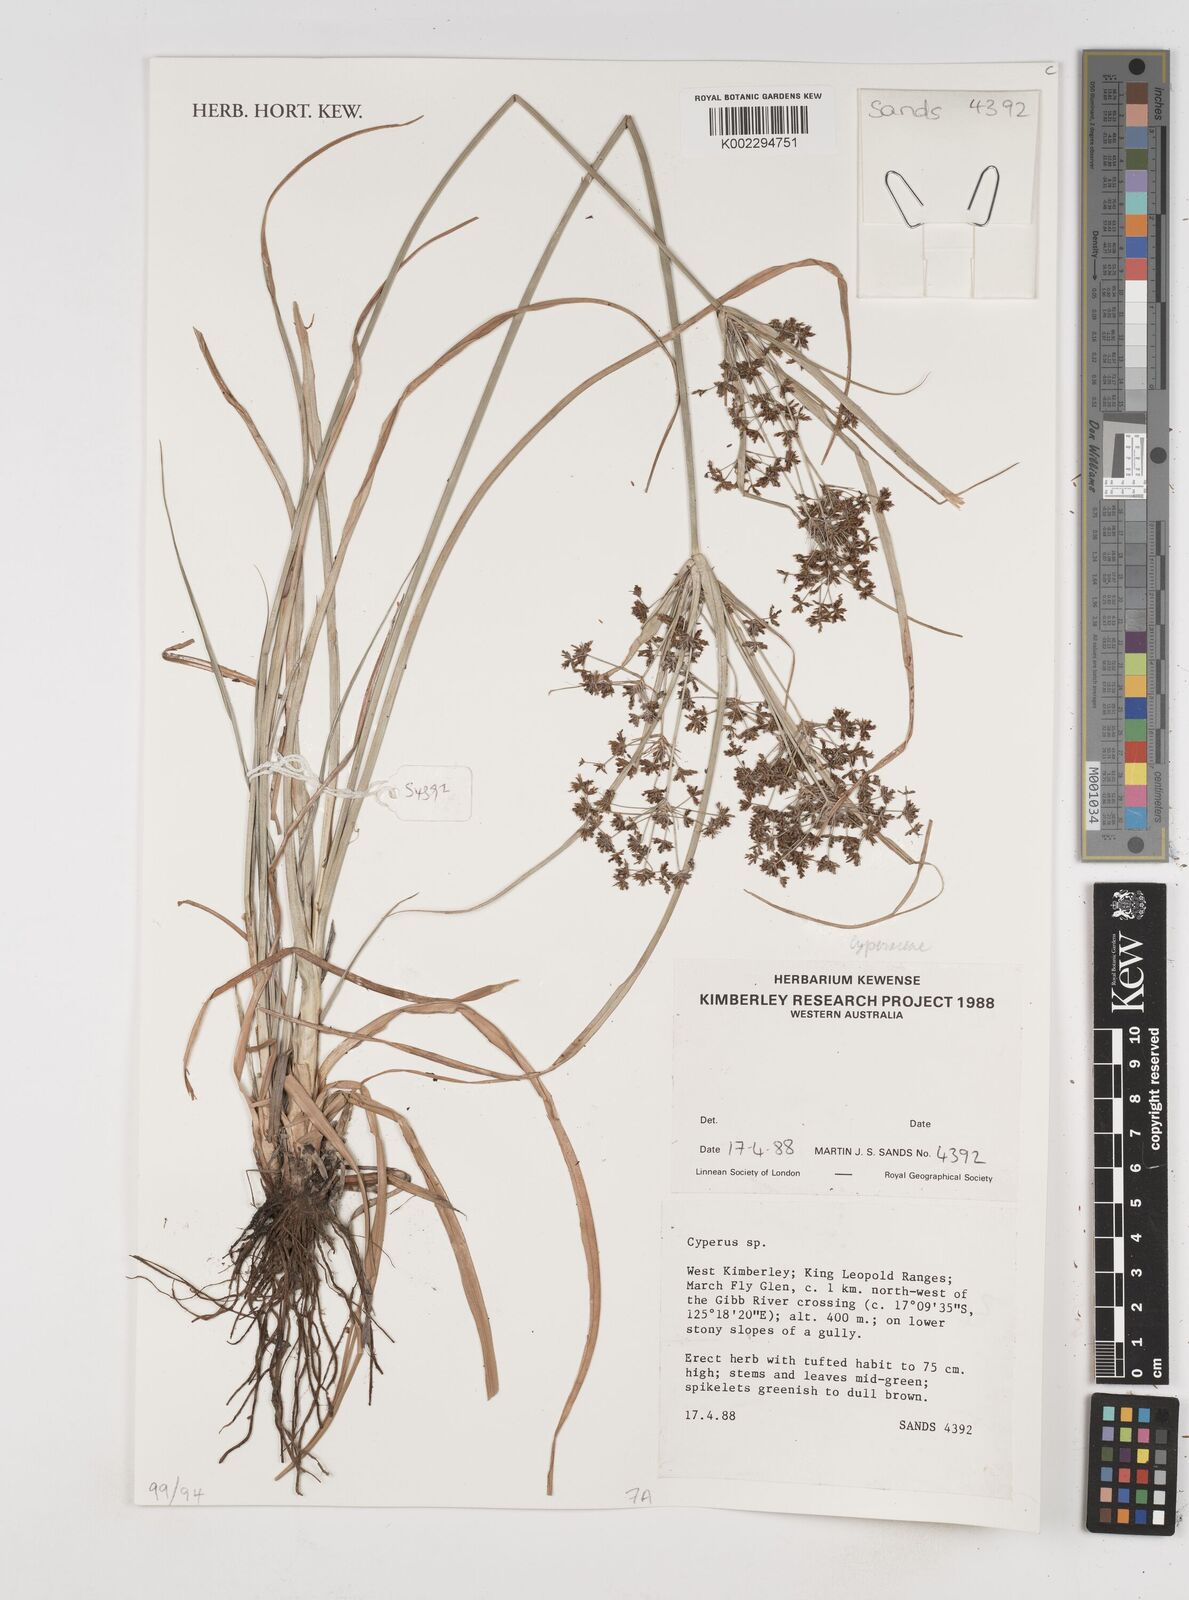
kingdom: Plantae
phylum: Tracheophyta
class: Liliopsida
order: Poales
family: Cyperaceae
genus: Cyperus
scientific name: Cyperus
